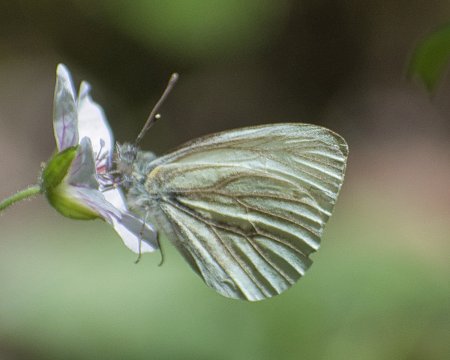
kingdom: Animalia
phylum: Arthropoda
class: Insecta
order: Lepidoptera
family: Pieridae
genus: Pieris
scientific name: Pieris marginalis
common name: Margined White
